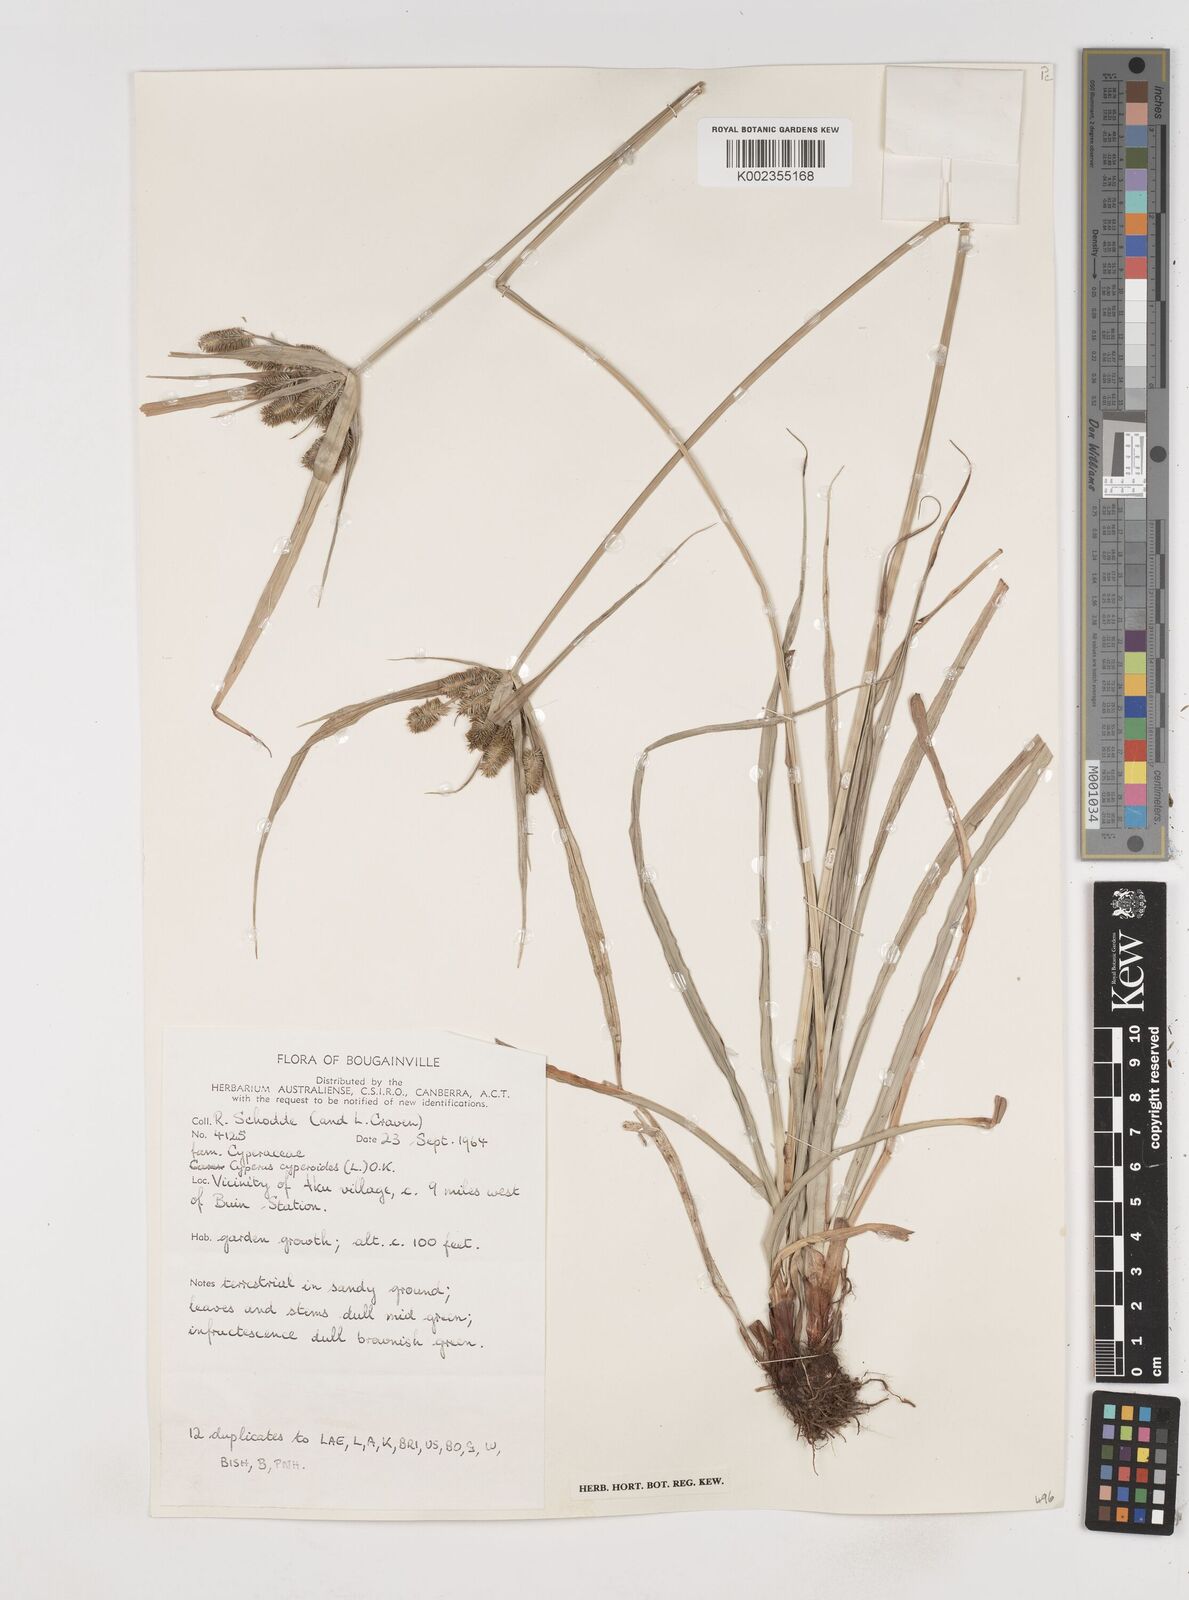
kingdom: Plantae
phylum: Tracheophyta
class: Liliopsida
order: Poales
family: Cyperaceae
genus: Cyperus
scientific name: Cyperus cyperoides
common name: Pacific island flat sedge
